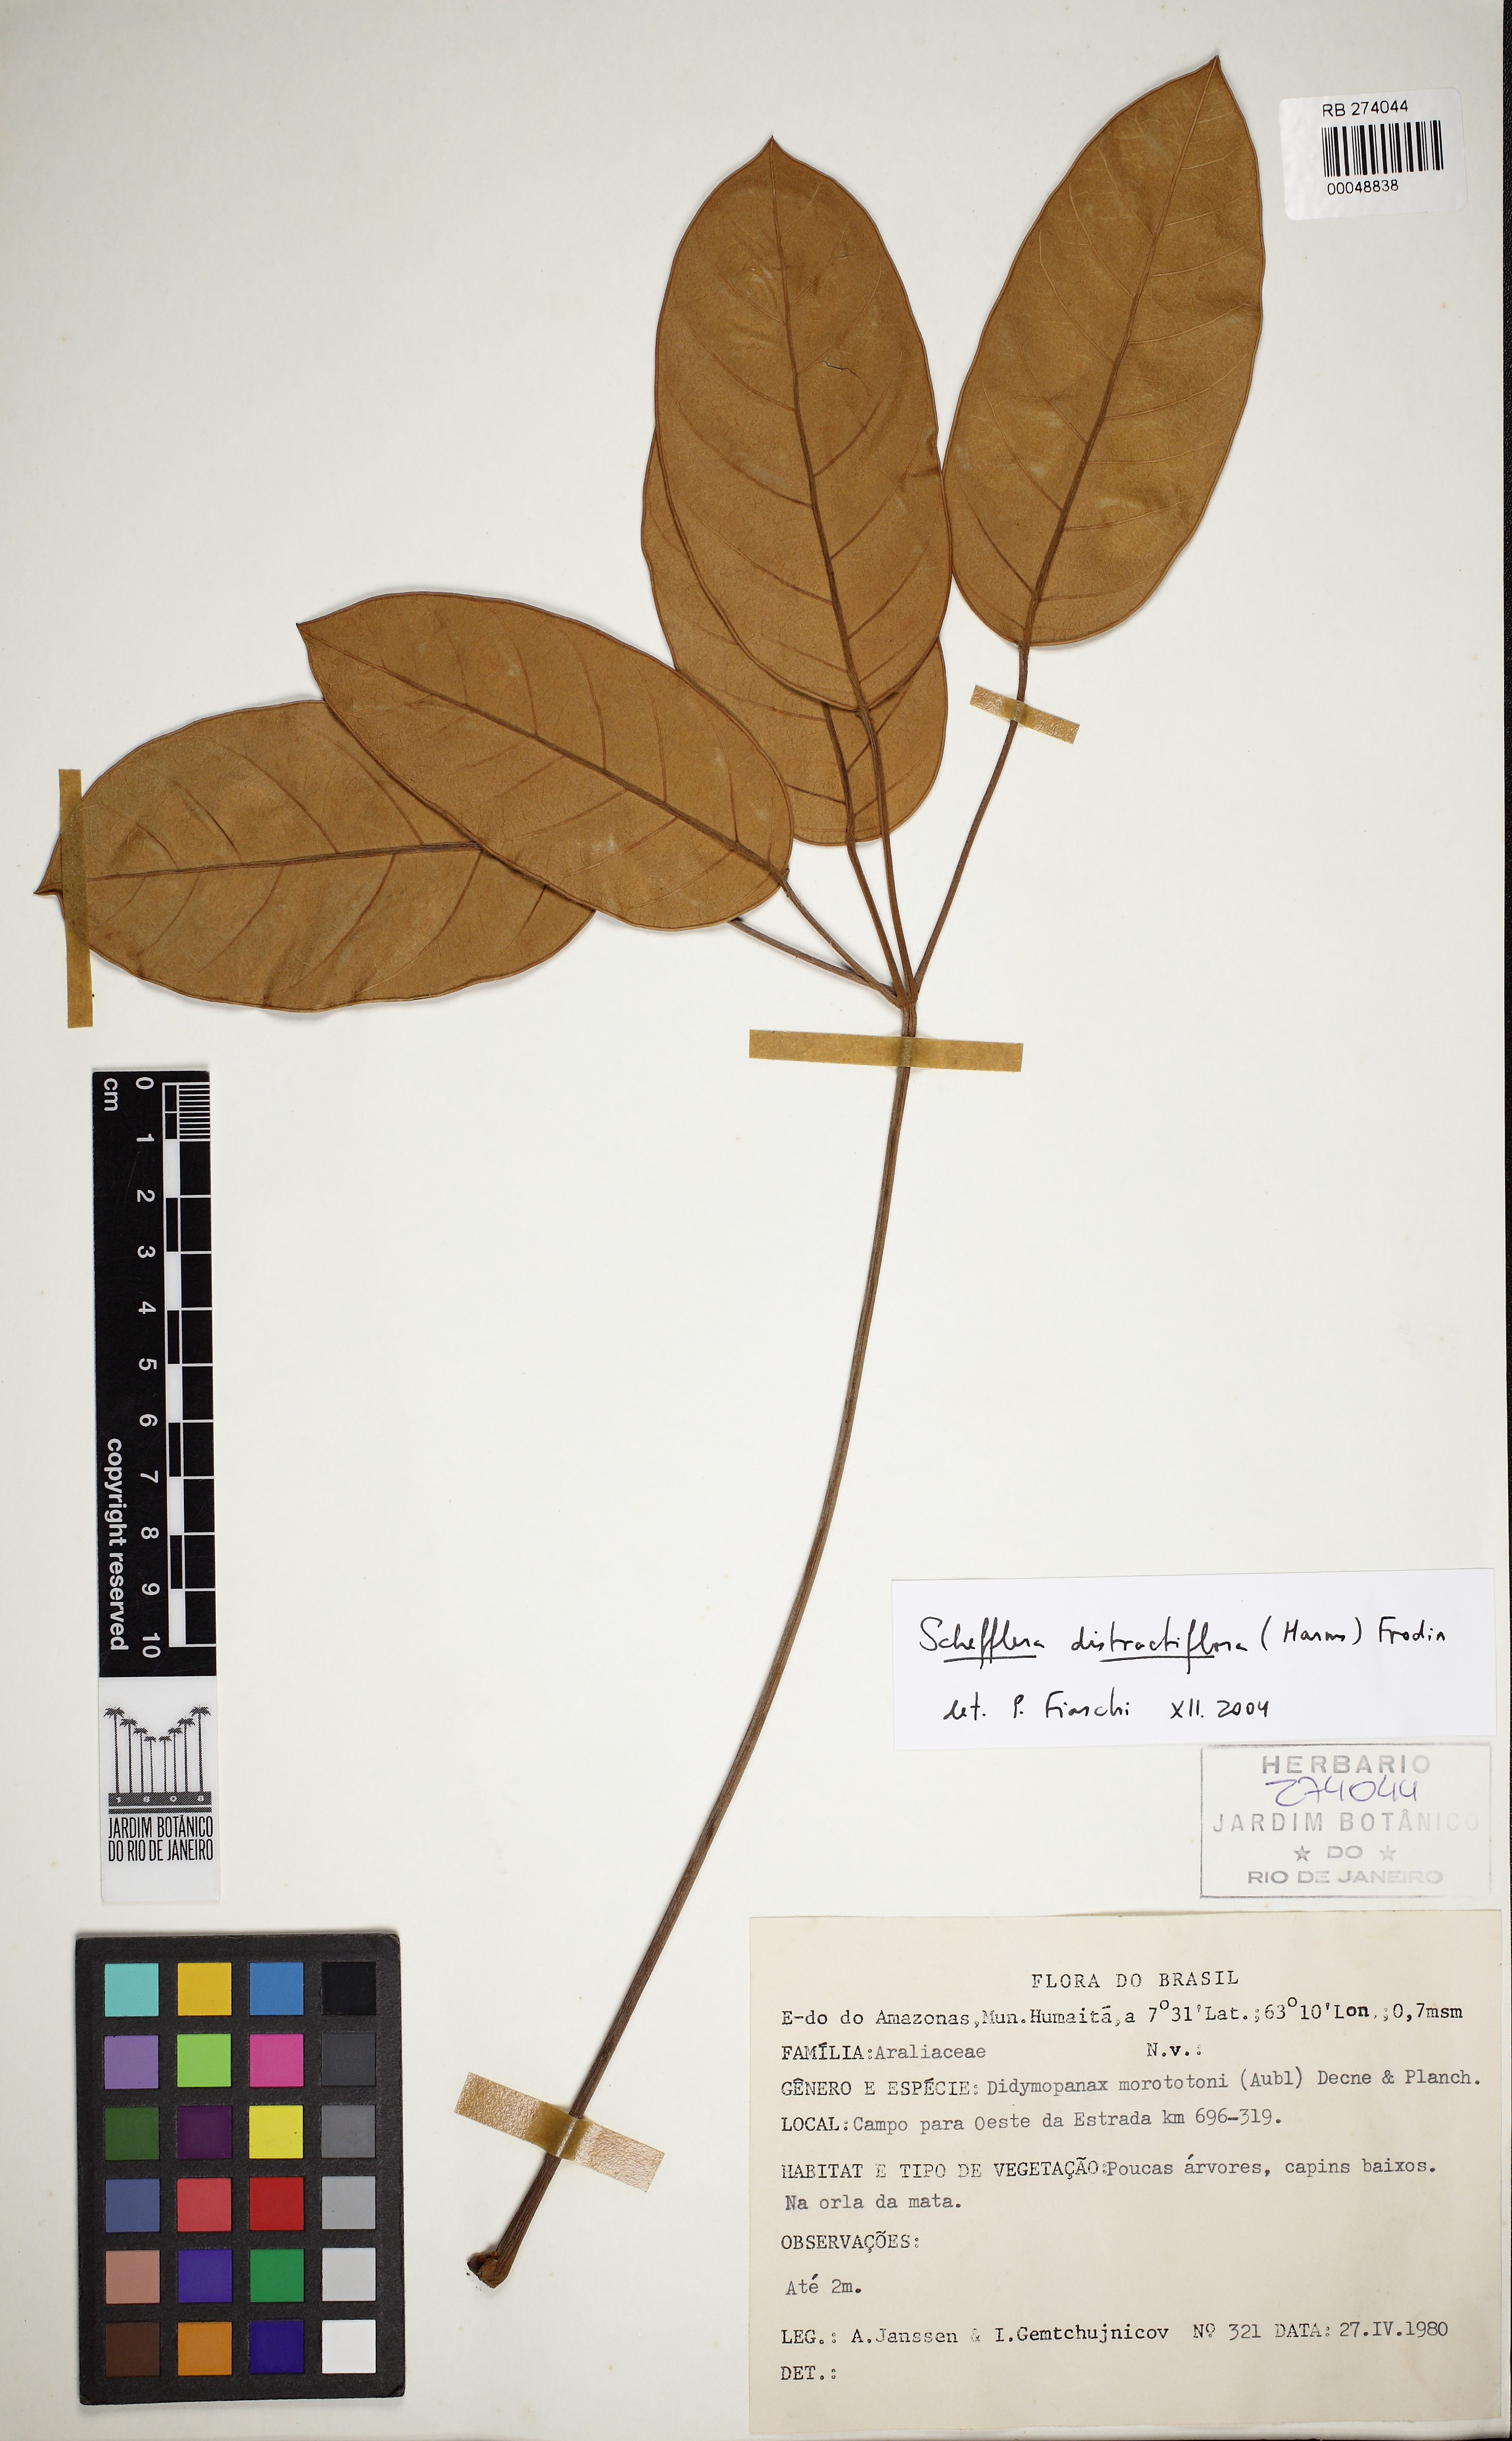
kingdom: Plantae
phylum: Tracheophyta
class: Magnoliopsida
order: Apiales
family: Araliaceae
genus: Didymopanax
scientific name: Didymopanax distractiflorus
